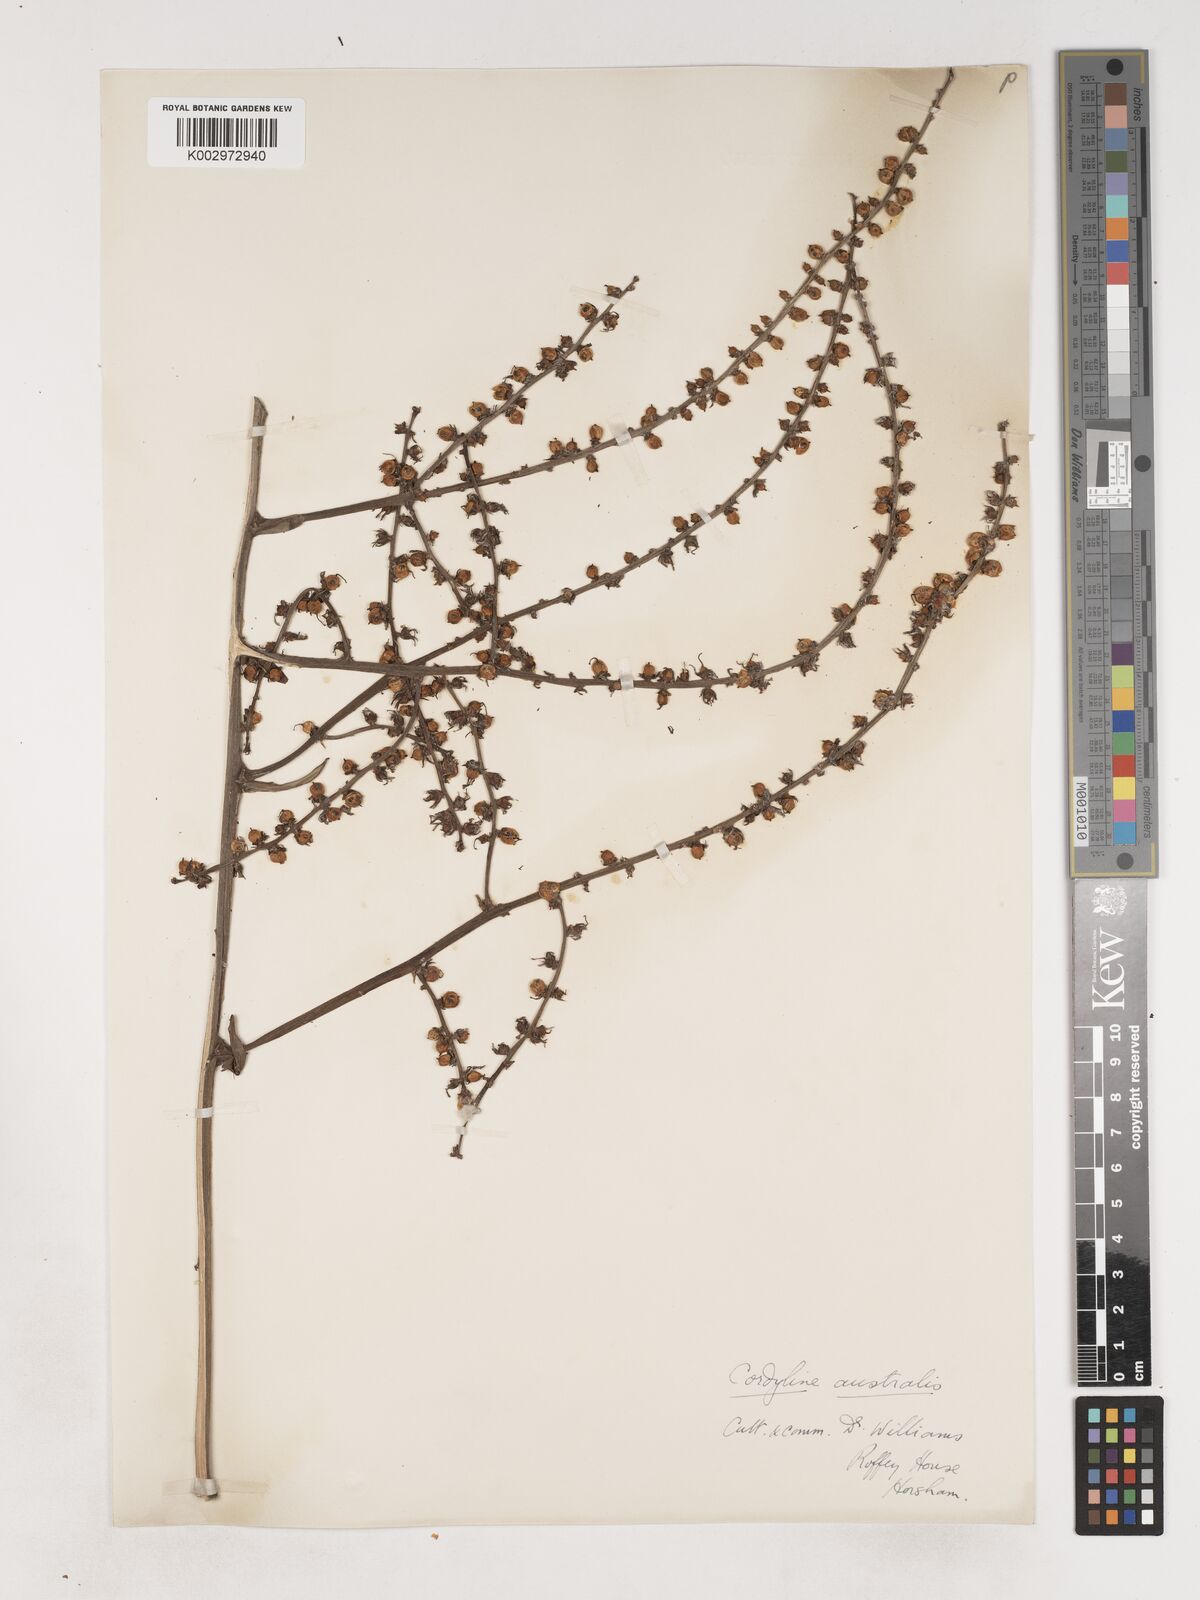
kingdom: Plantae
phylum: Tracheophyta
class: Liliopsida
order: Asparagales
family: Asparagaceae
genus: Cordyline
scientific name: Cordyline
